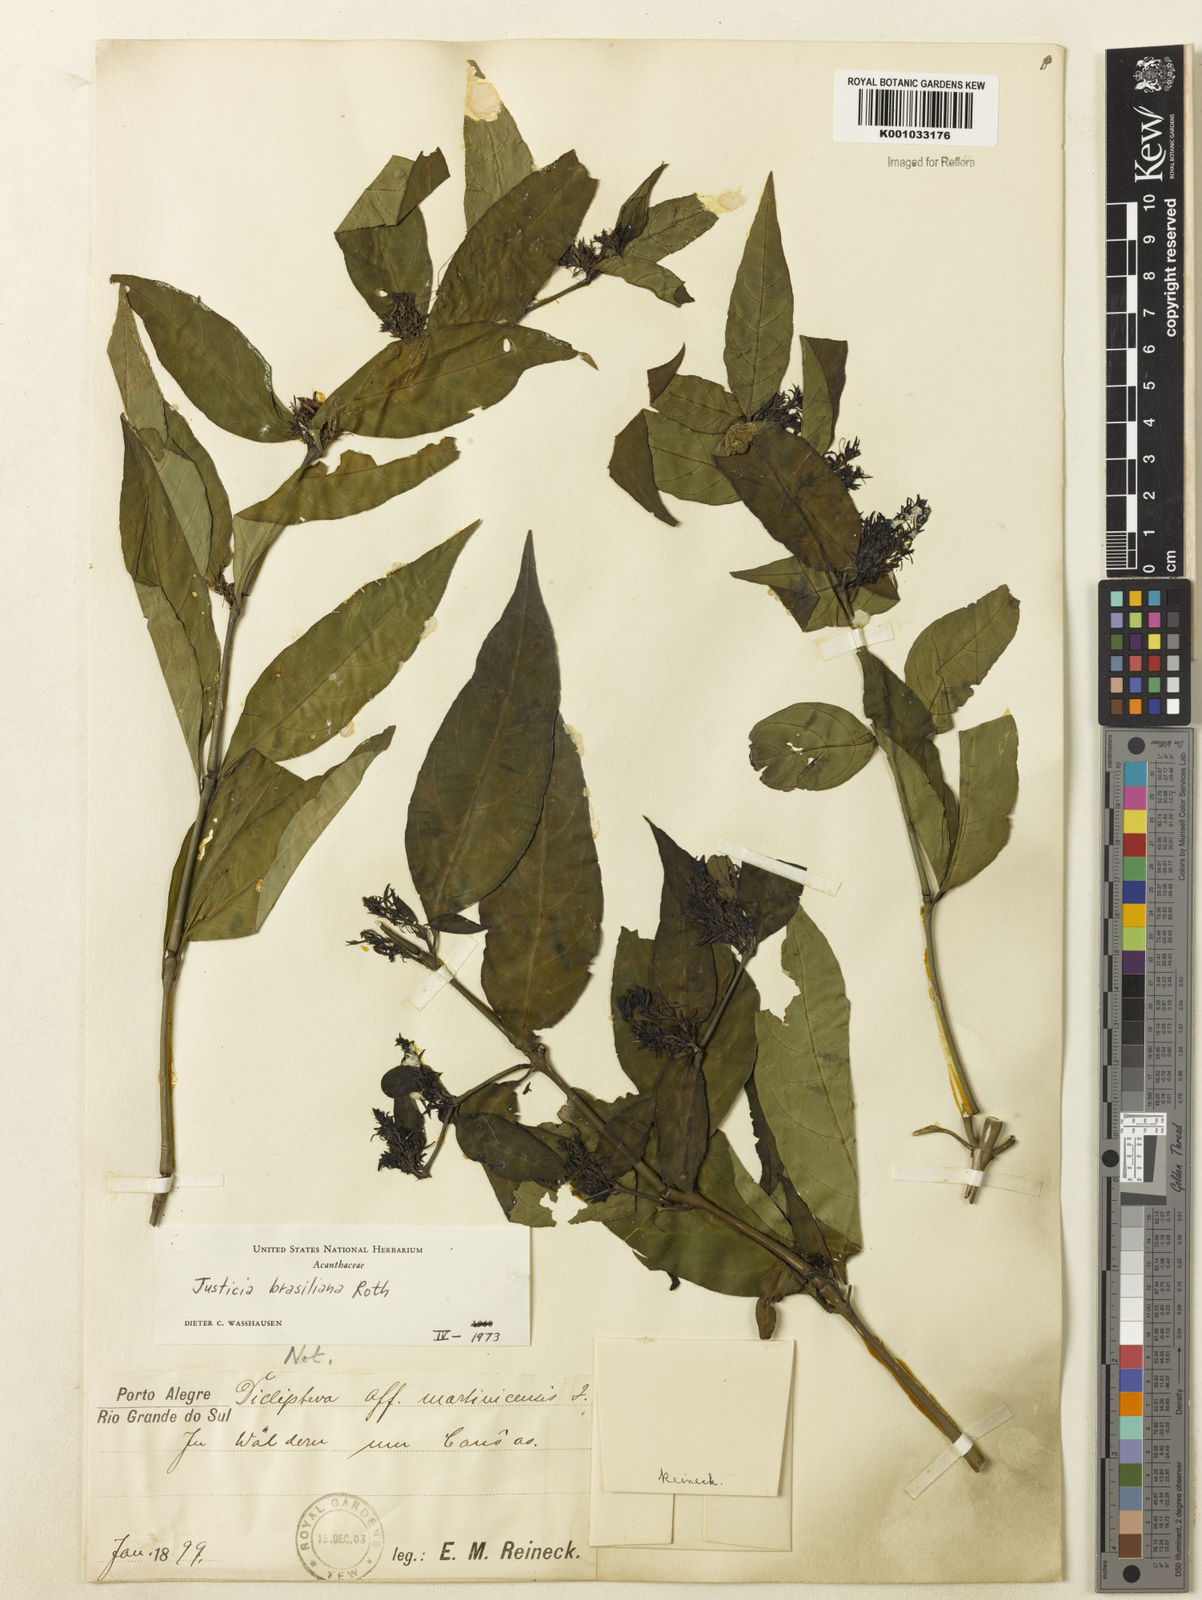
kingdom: Plantae
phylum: Tracheophyta
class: Magnoliopsida
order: Lamiales
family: Acanthaceae
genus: Justicia
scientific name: Justicia brasiliana
